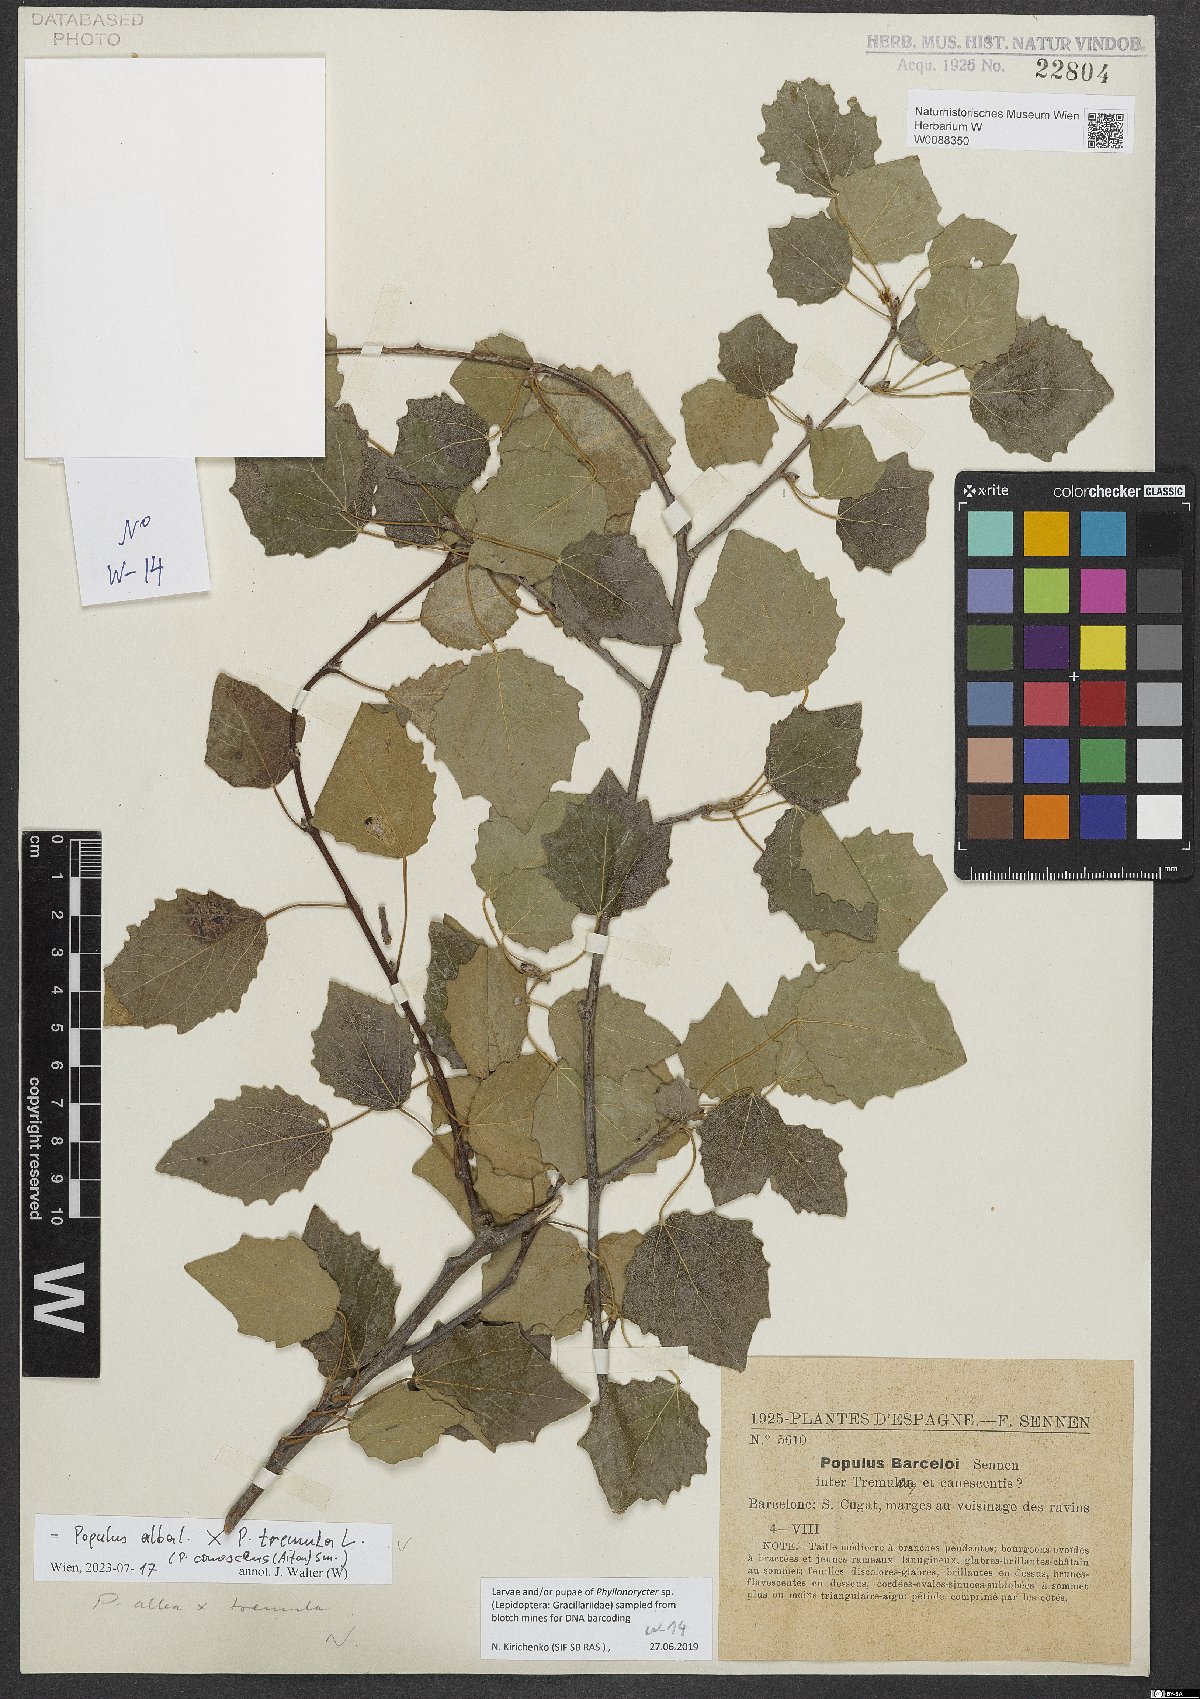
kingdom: Plantae
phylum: Tracheophyta
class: Magnoliopsida
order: Malpighiales
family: Salicaceae
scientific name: Salicaceae
